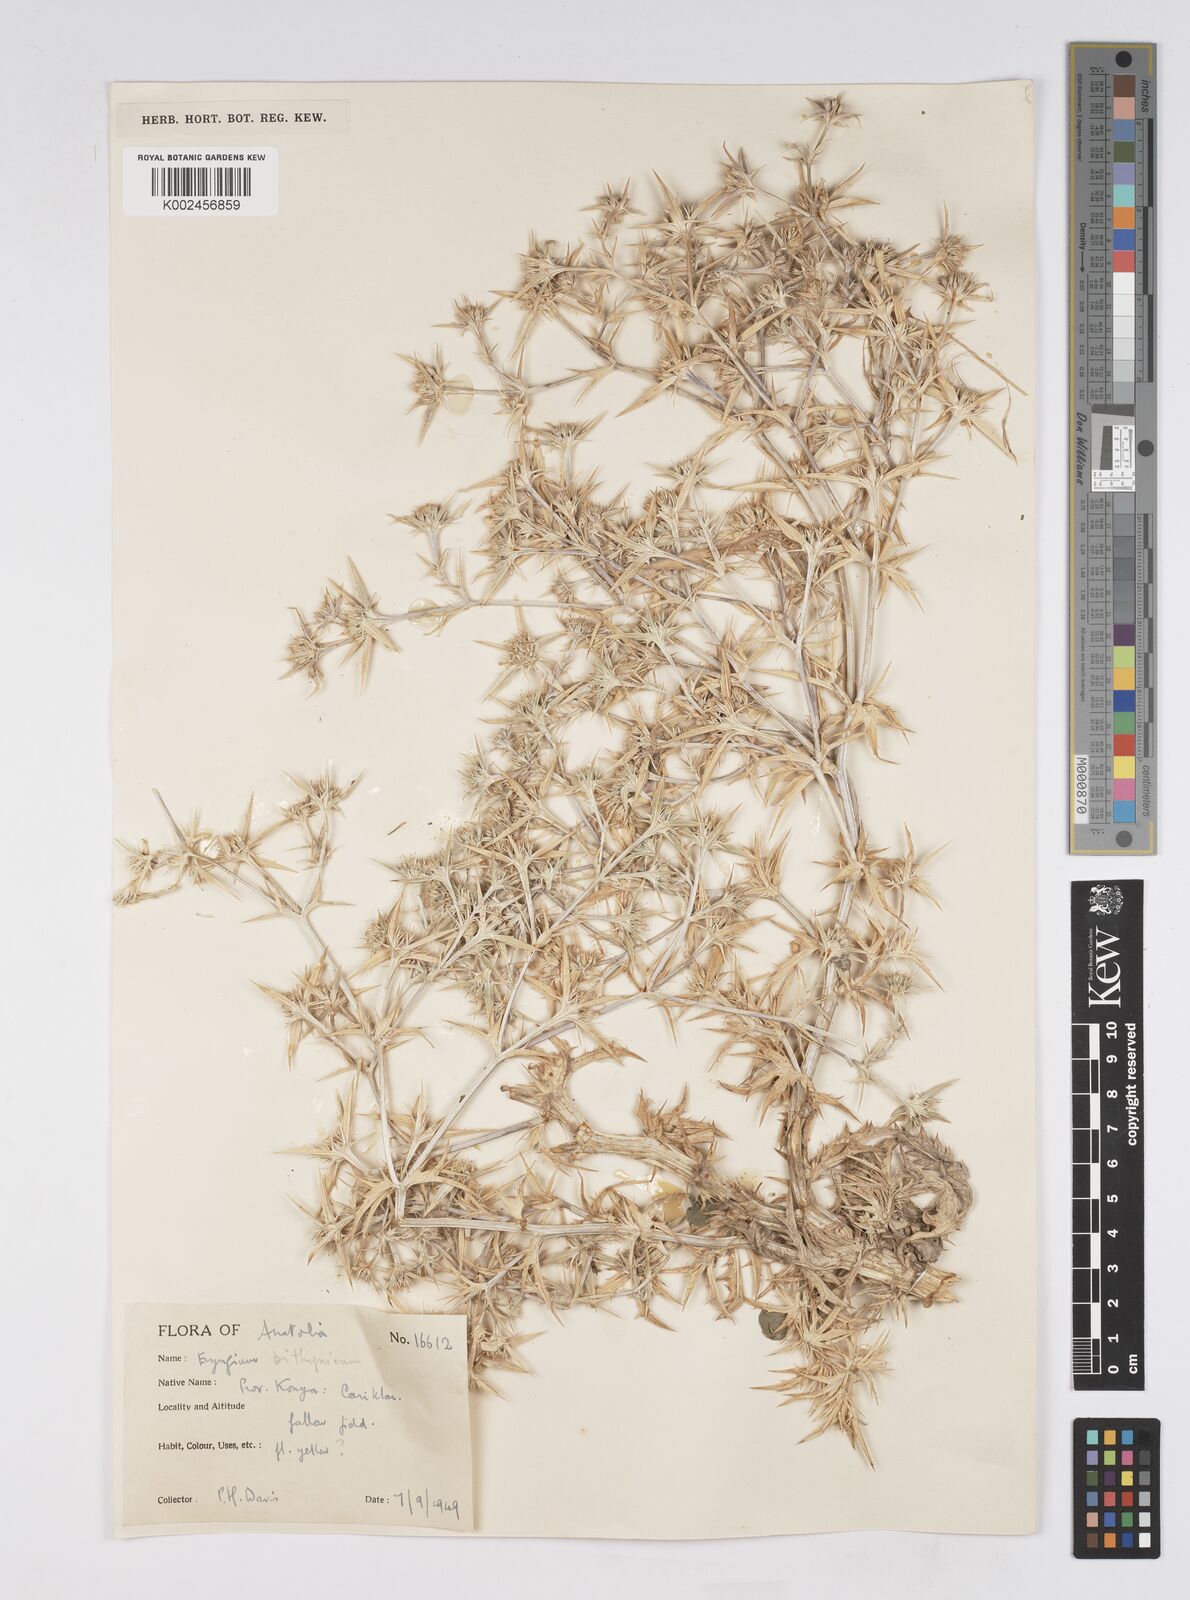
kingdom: Plantae
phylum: Tracheophyta
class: Magnoliopsida
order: Apiales
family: Apiaceae
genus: Eryngium
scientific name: Eryngium bithynicum
